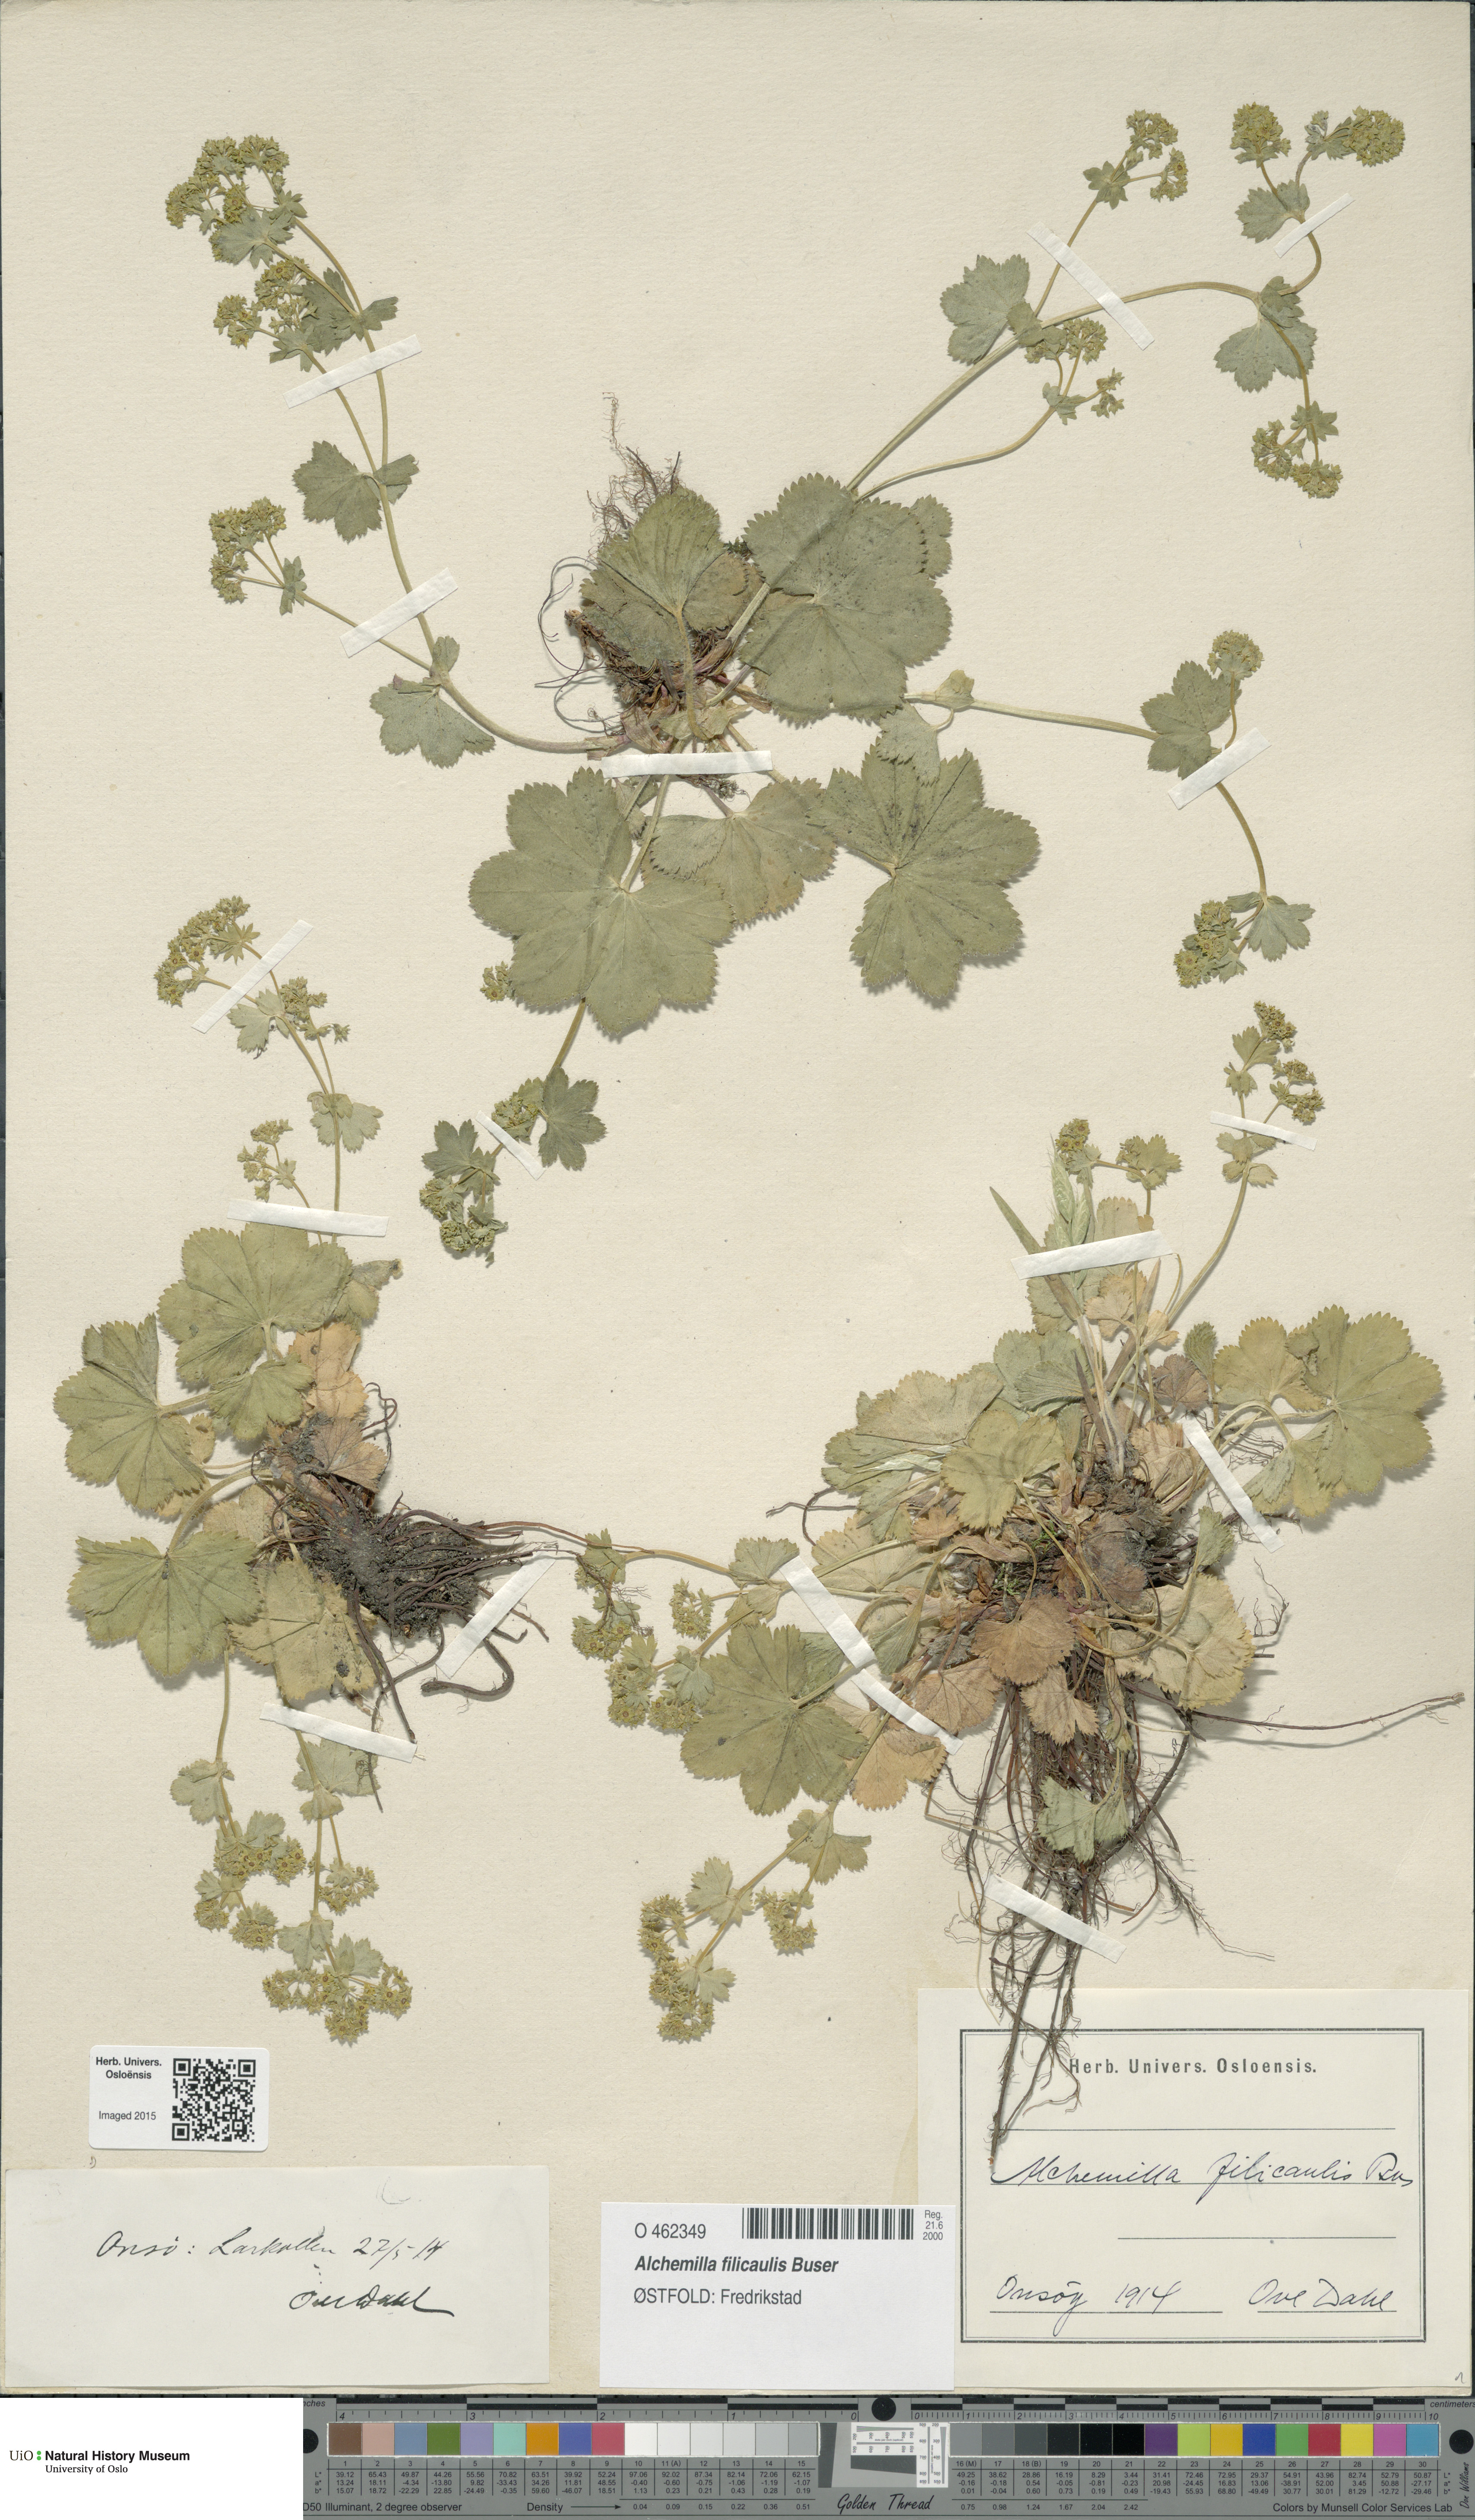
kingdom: Plantae
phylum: Tracheophyta
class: Magnoliopsida
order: Rosales
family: Rosaceae
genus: Alchemilla
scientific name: Alchemilla filicaulis
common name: Hairy lady's-mantle
